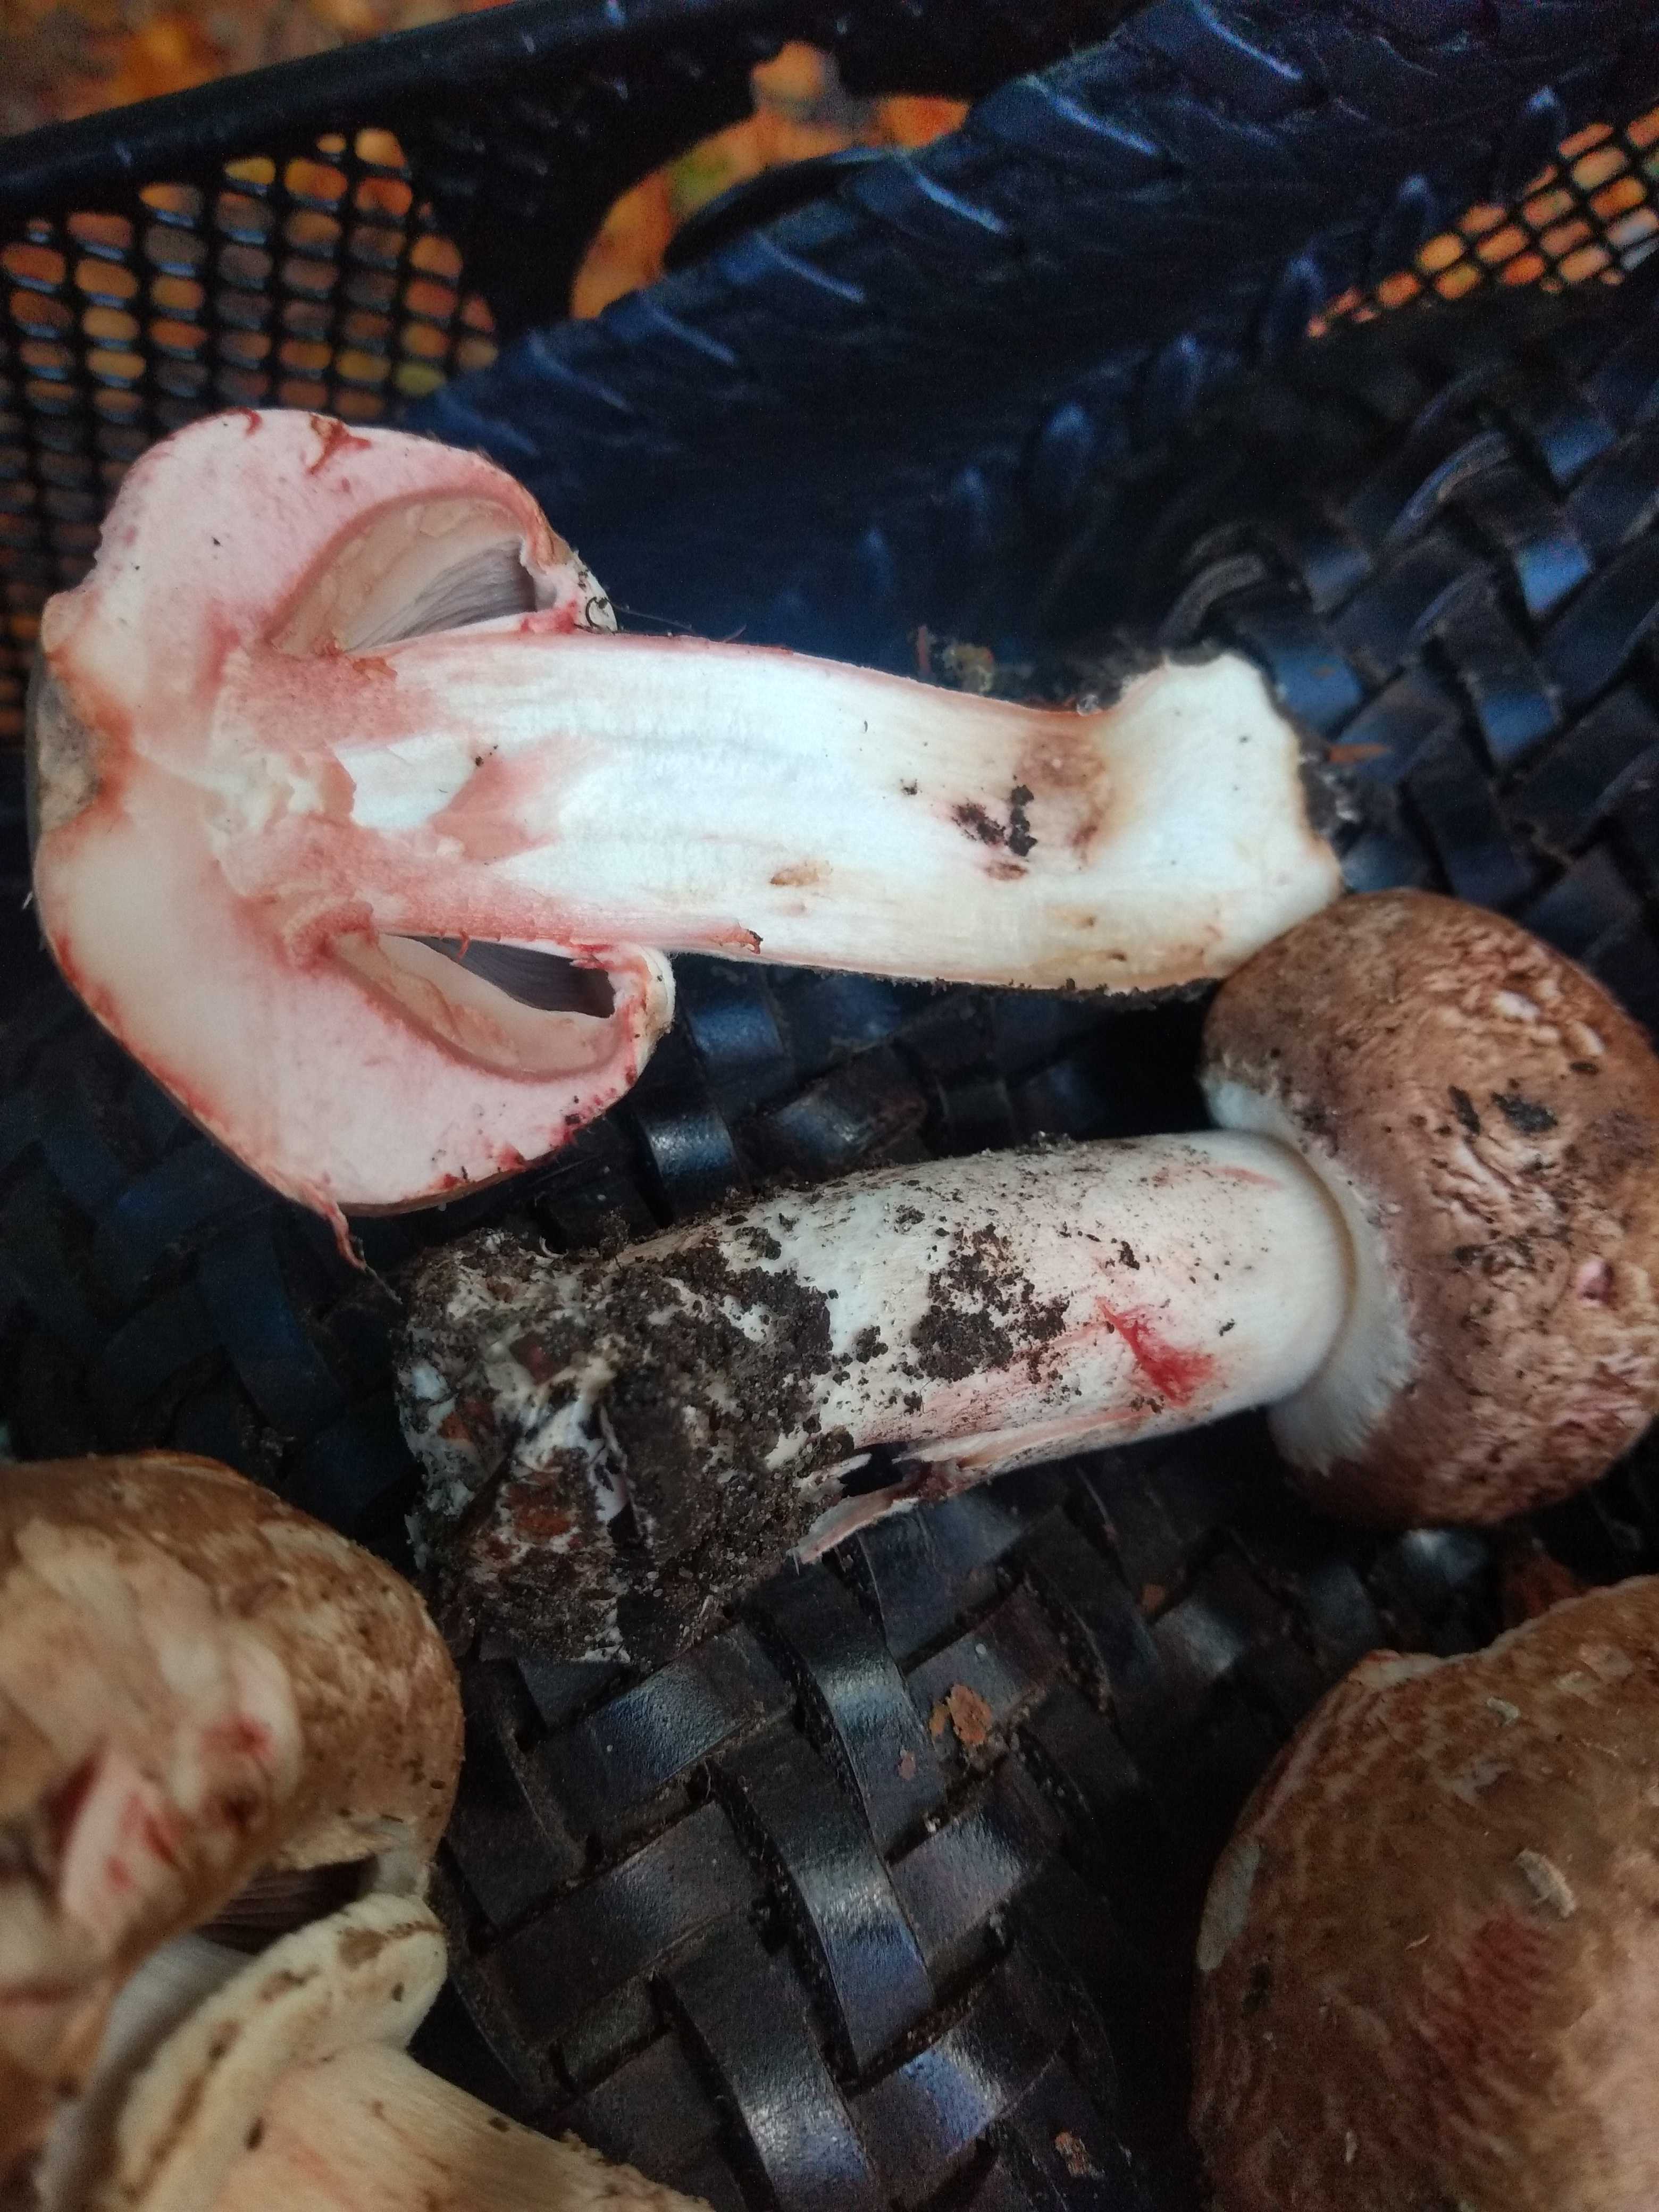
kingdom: Fungi
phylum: Basidiomycota
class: Agaricomycetes
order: Agaricales
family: Agaricaceae
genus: Agaricus
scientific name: Agaricus
